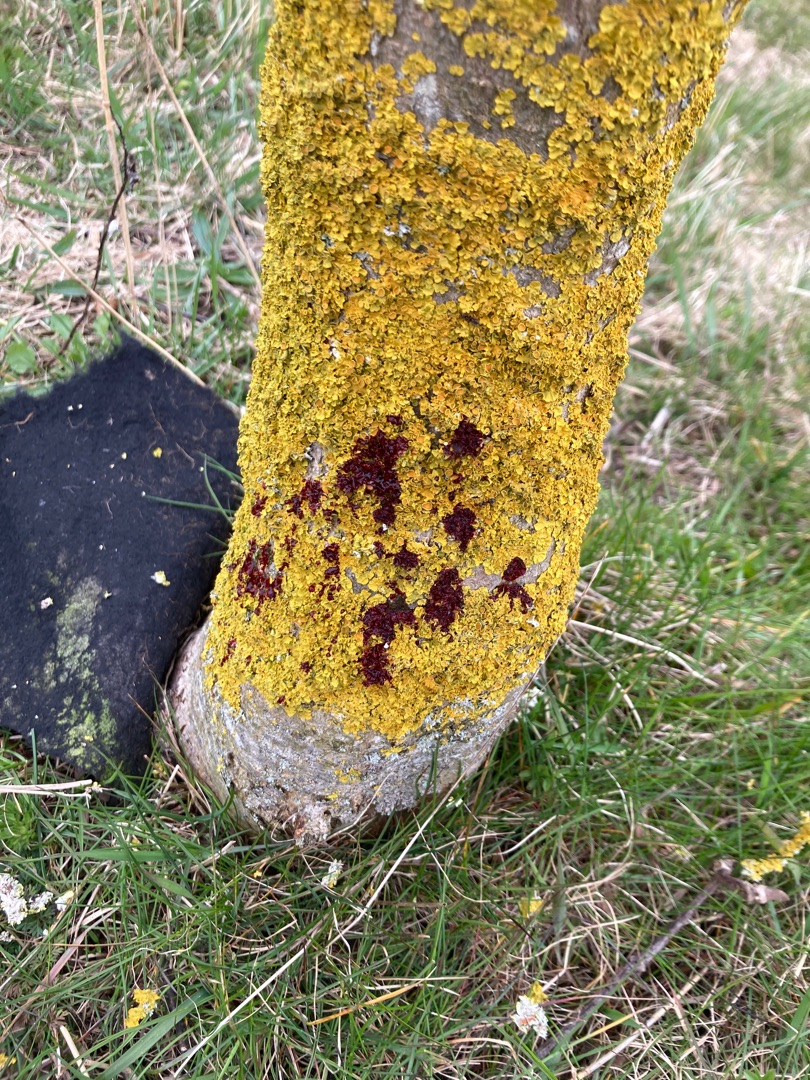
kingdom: Fungi
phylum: Ascomycota
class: Lecanoromycetes
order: Teloschistales
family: Teloschistaceae
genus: Xanthoria
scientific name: Xanthoria parietina
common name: Almindelig væggelav
